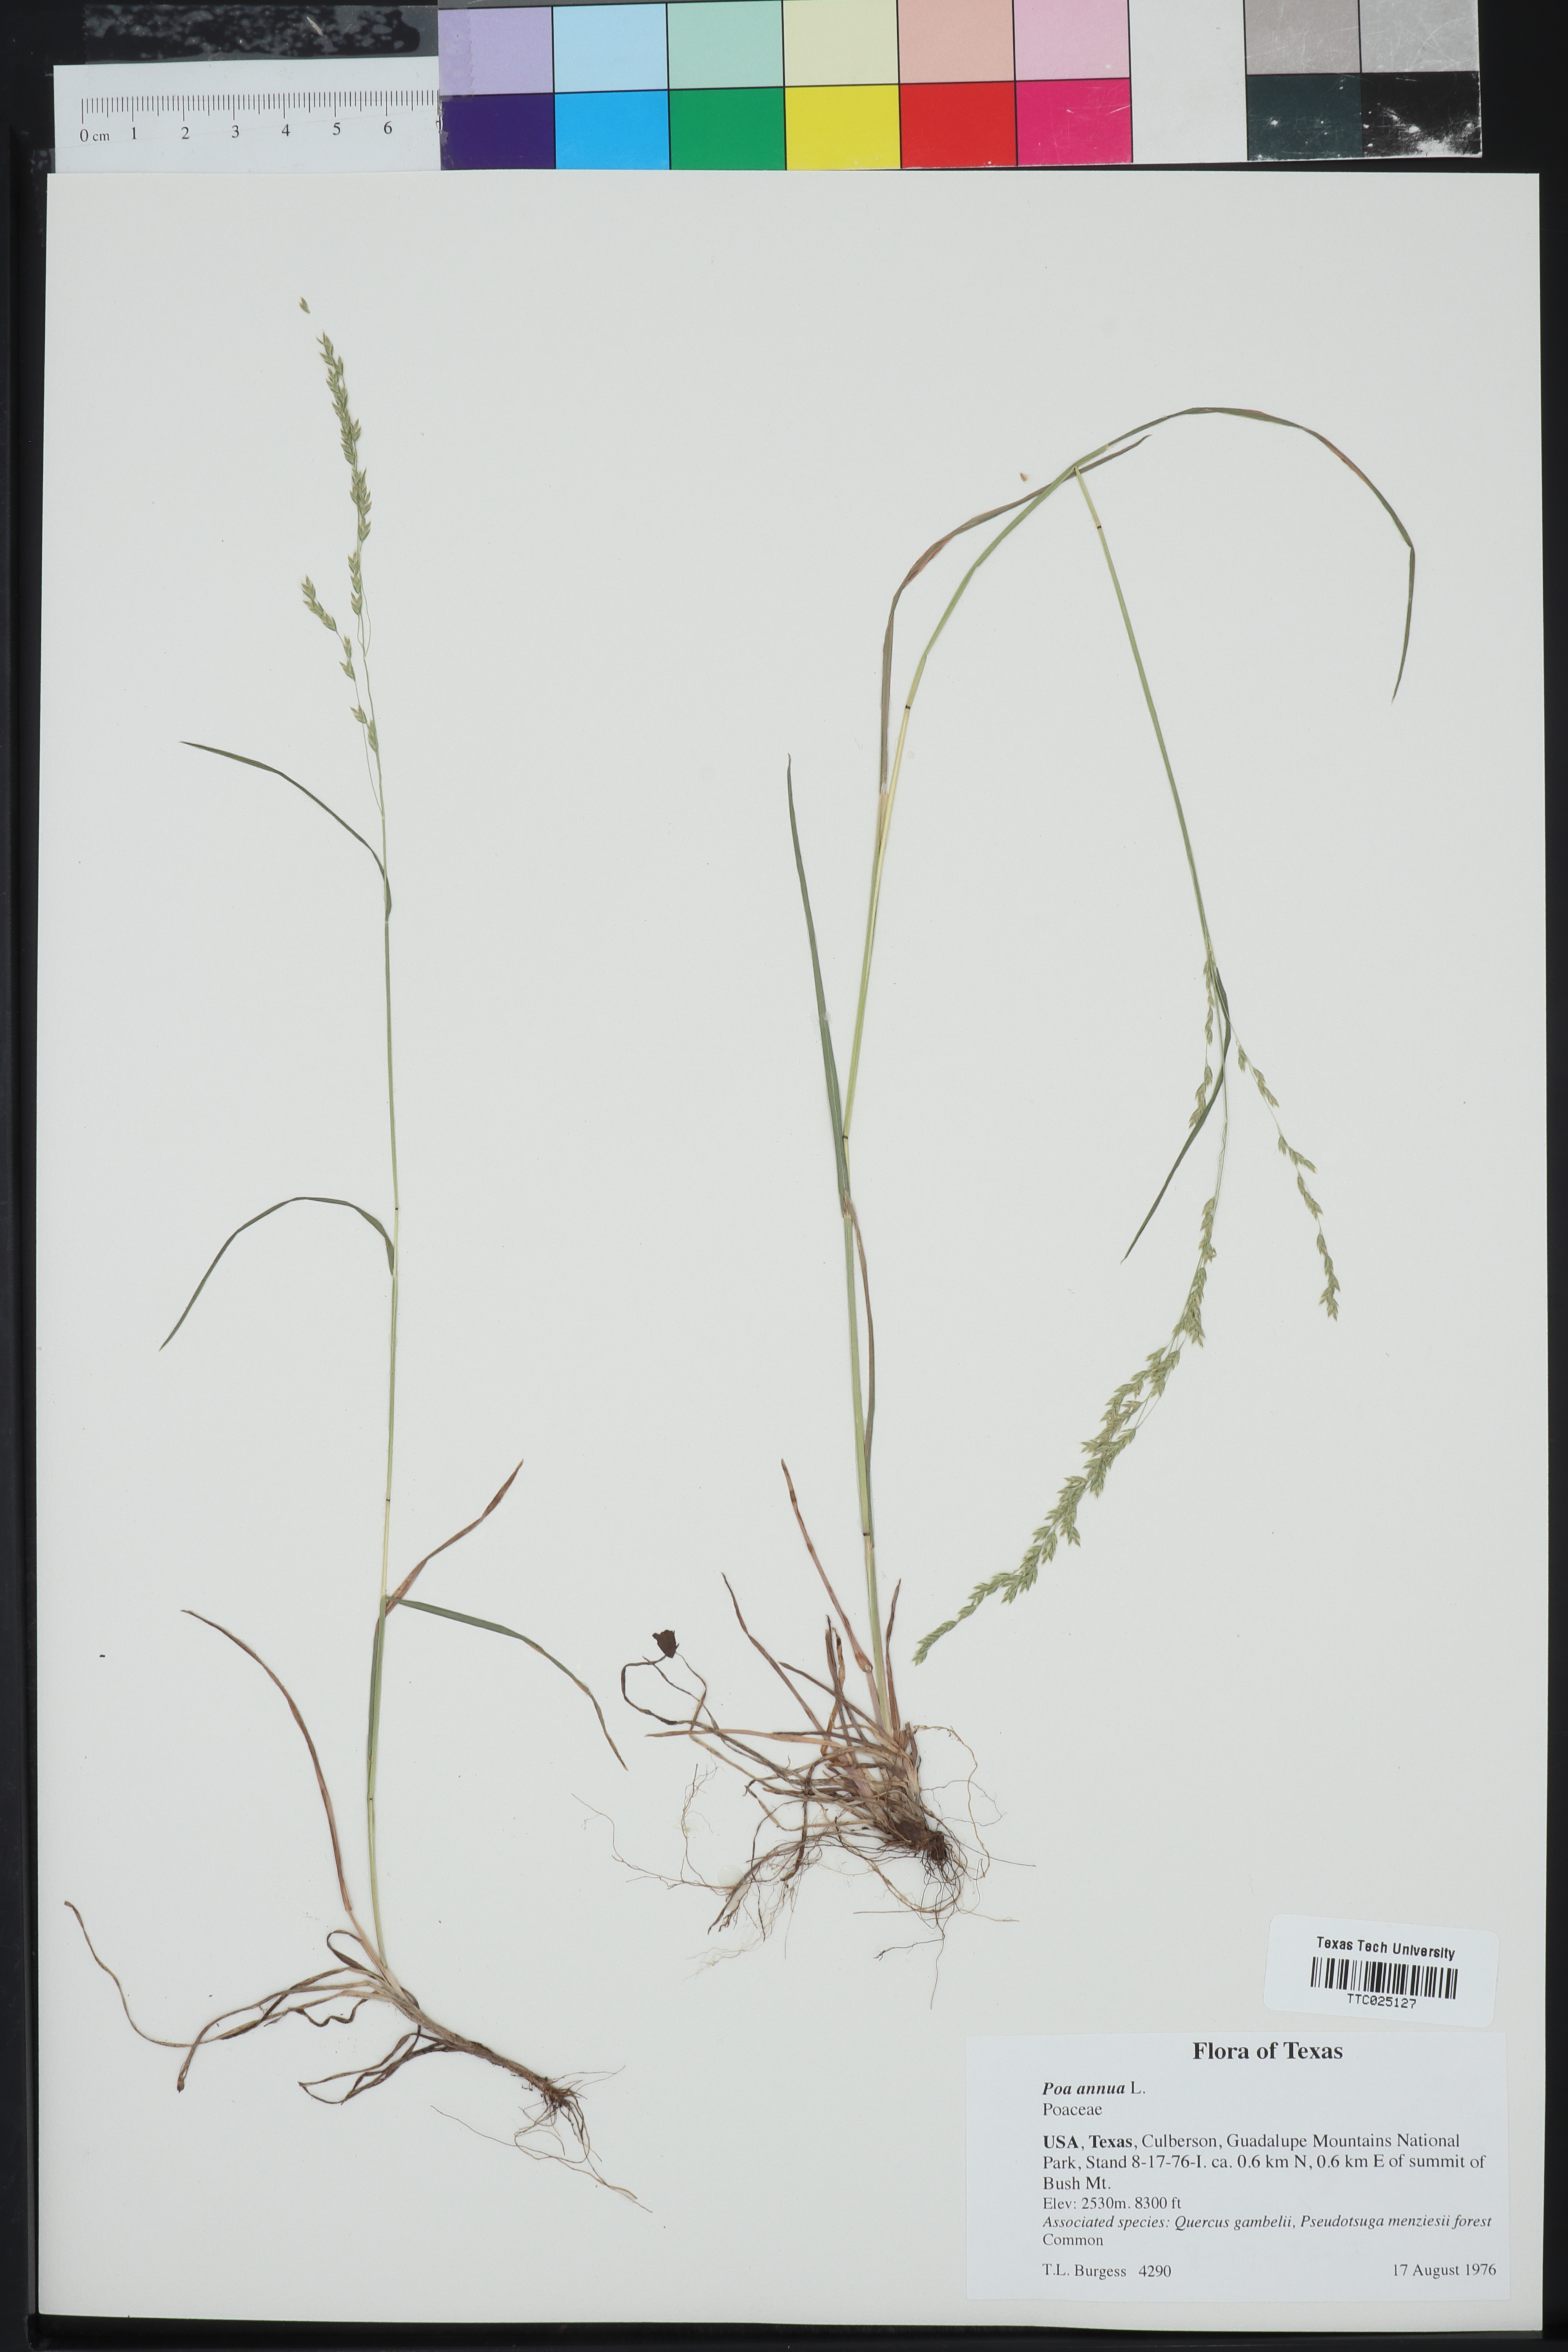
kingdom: Plantae
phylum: Tracheophyta
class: Liliopsida
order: Poales
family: Poaceae
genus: Poa
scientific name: Poa annua
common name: Annual bluegrass
